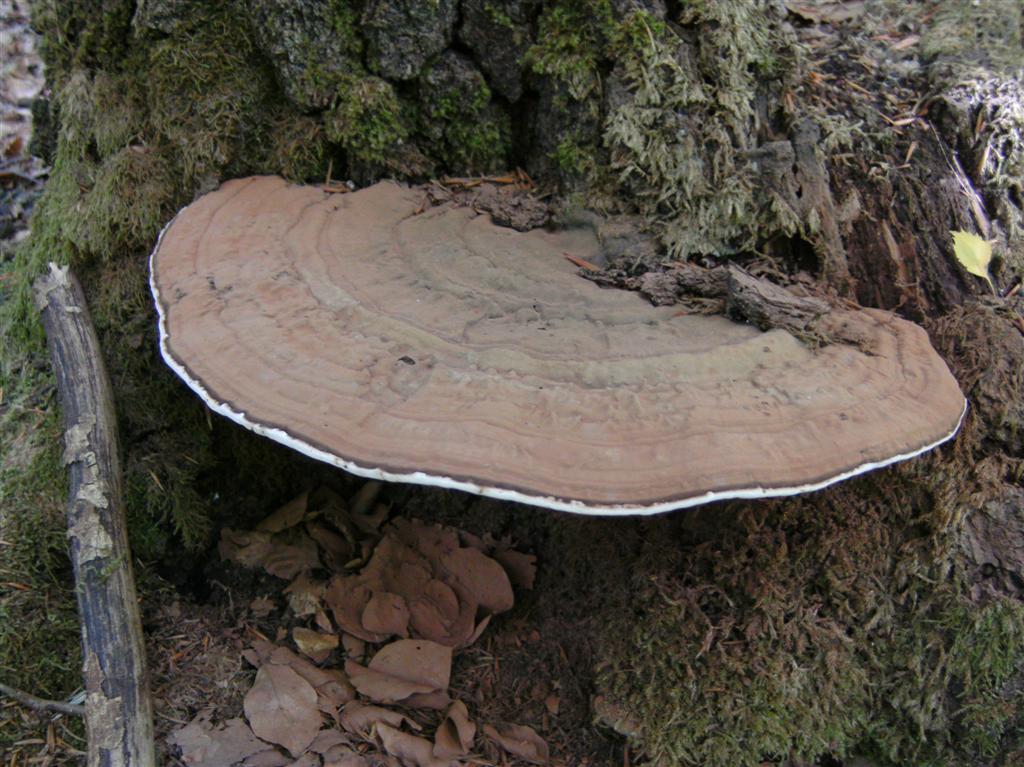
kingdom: Fungi
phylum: Basidiomycota
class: Agaricomycetes
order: Polyporales
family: Polyporaceae
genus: Ganoderma
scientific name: Ganoderma applanatum
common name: flad lakporesvamp
